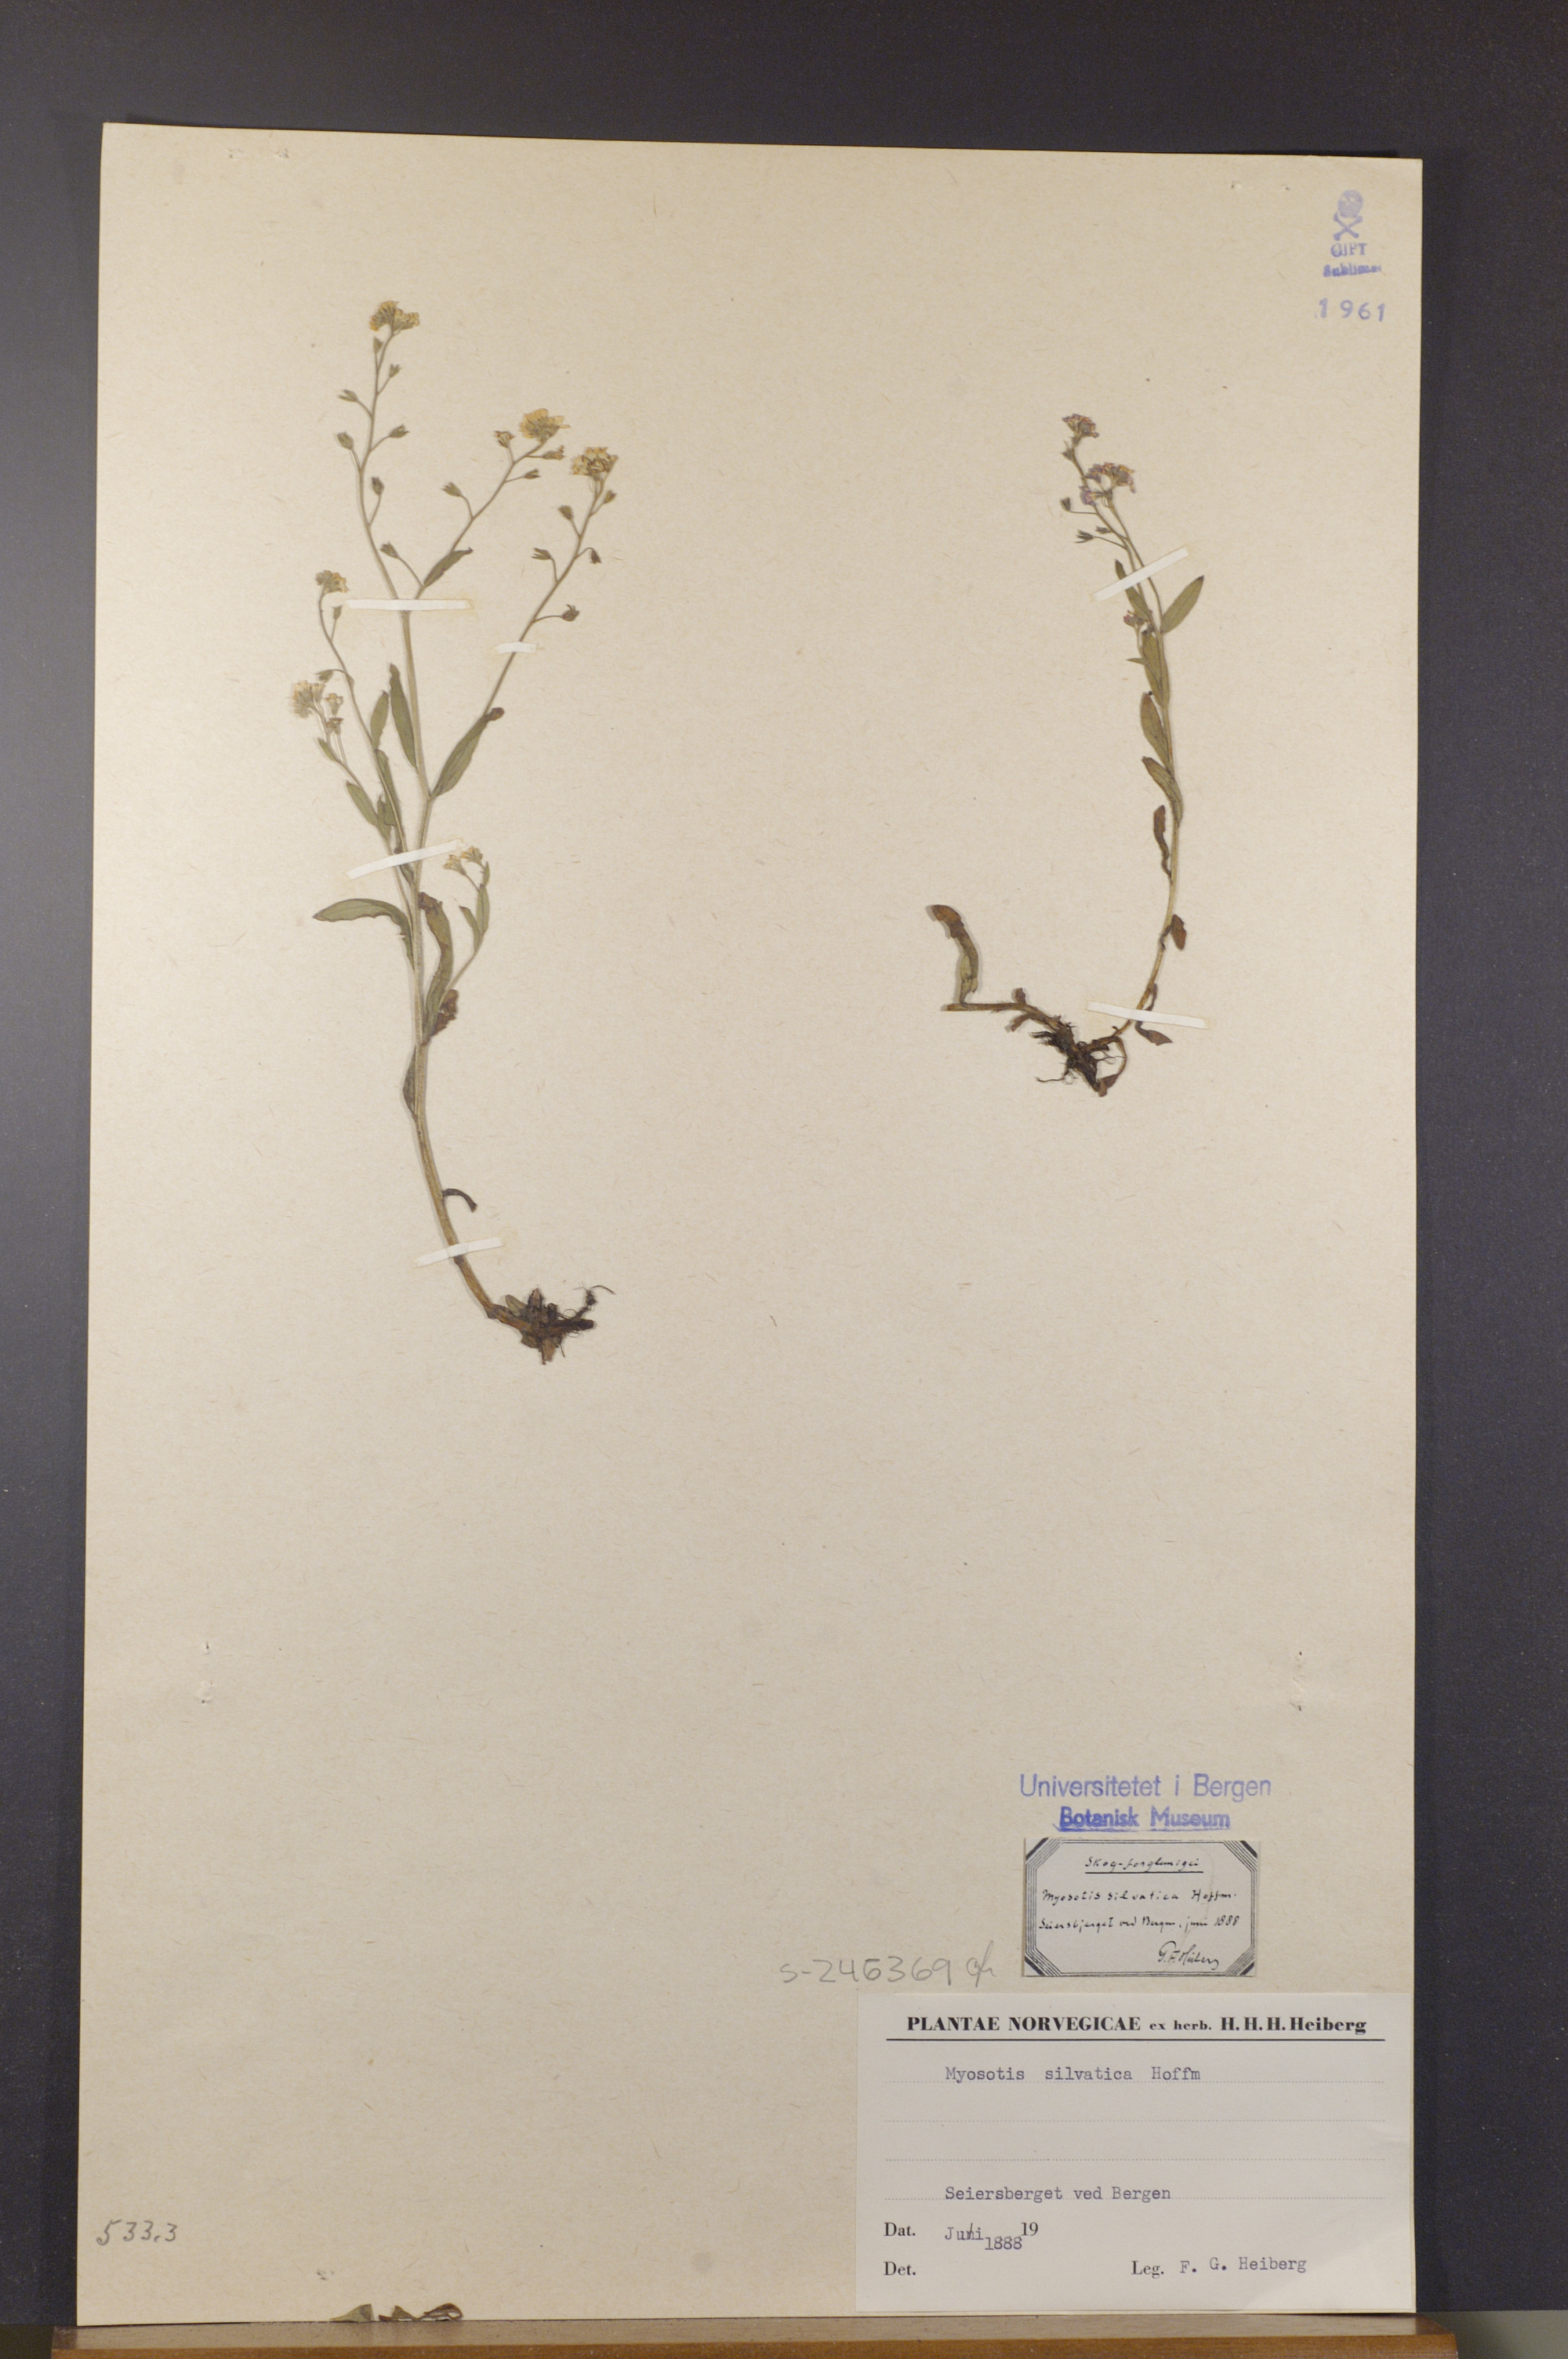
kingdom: Plantae
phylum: Tracheophyta
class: Magnoliopsida
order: Boraginales
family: Boraginaceae
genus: Myosotis
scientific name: Myosotis sylvatica
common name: Wood forget-me-not
